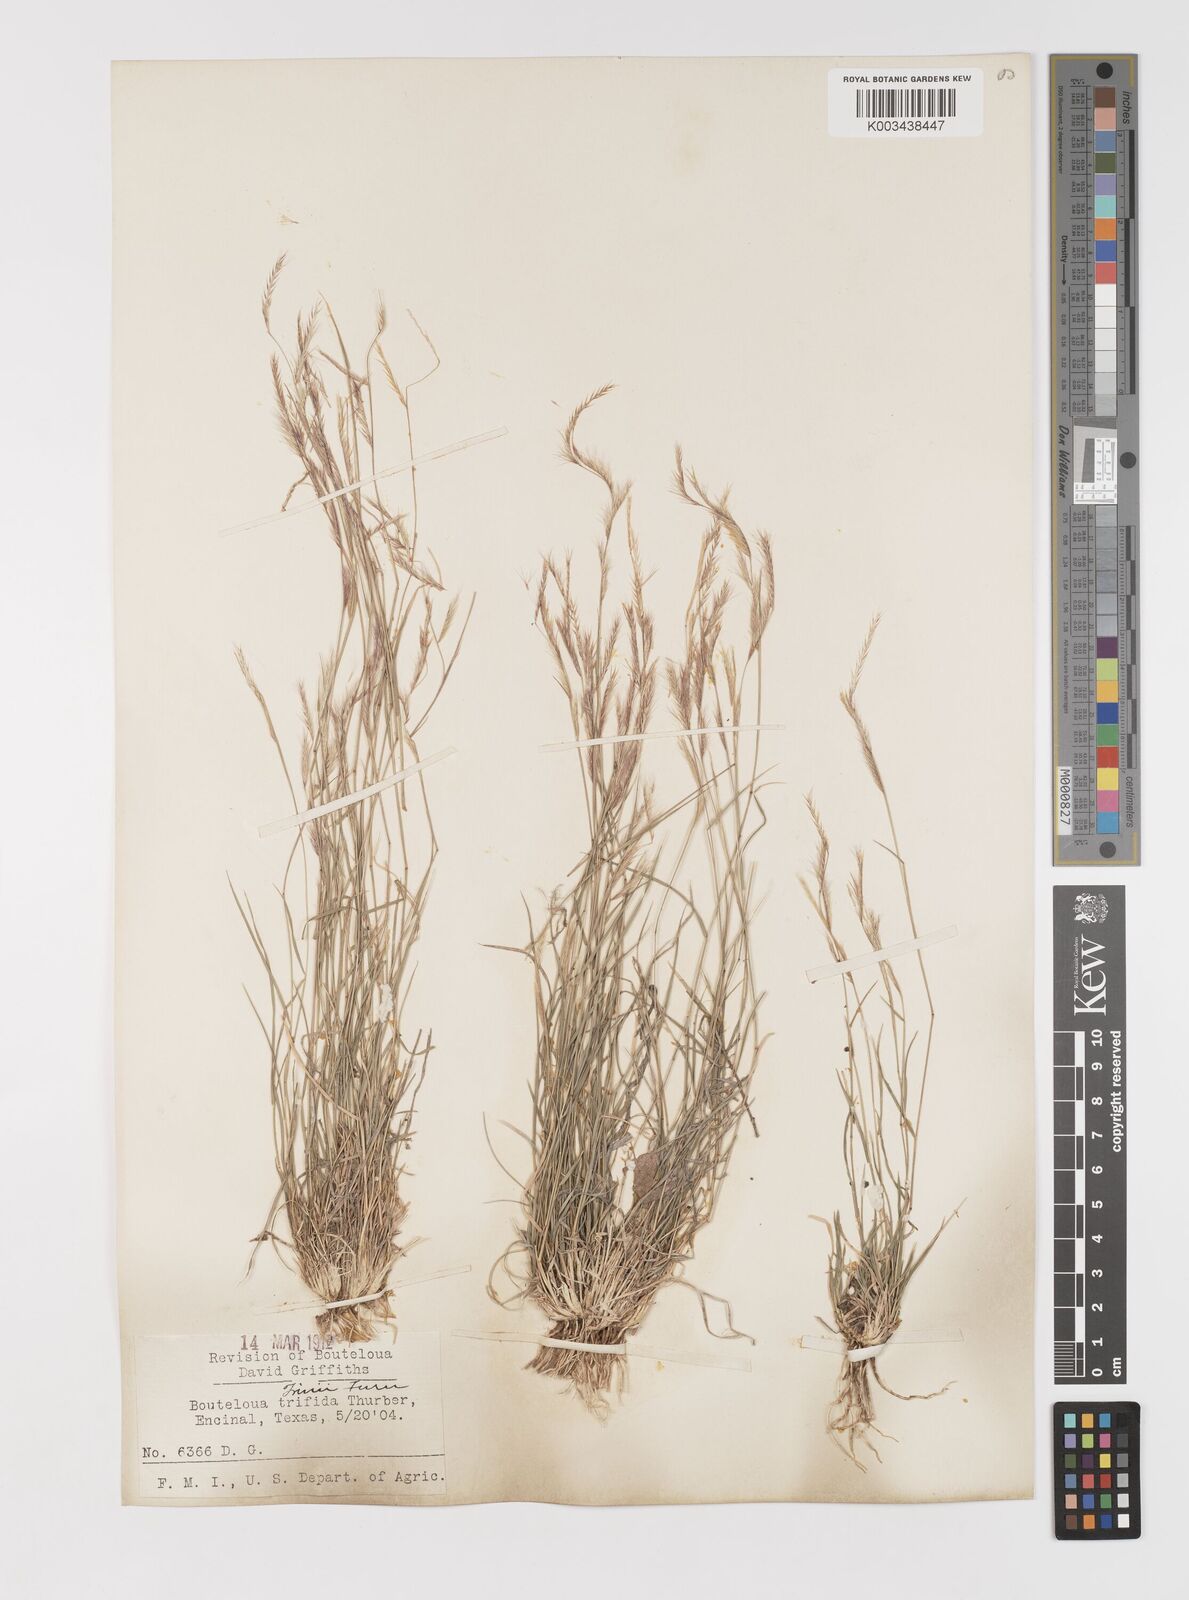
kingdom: Plantae
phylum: Tracheophyta
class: Liliopsida
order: Poales
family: Poaceae
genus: Bouteloua
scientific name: Bouteloua trifida
